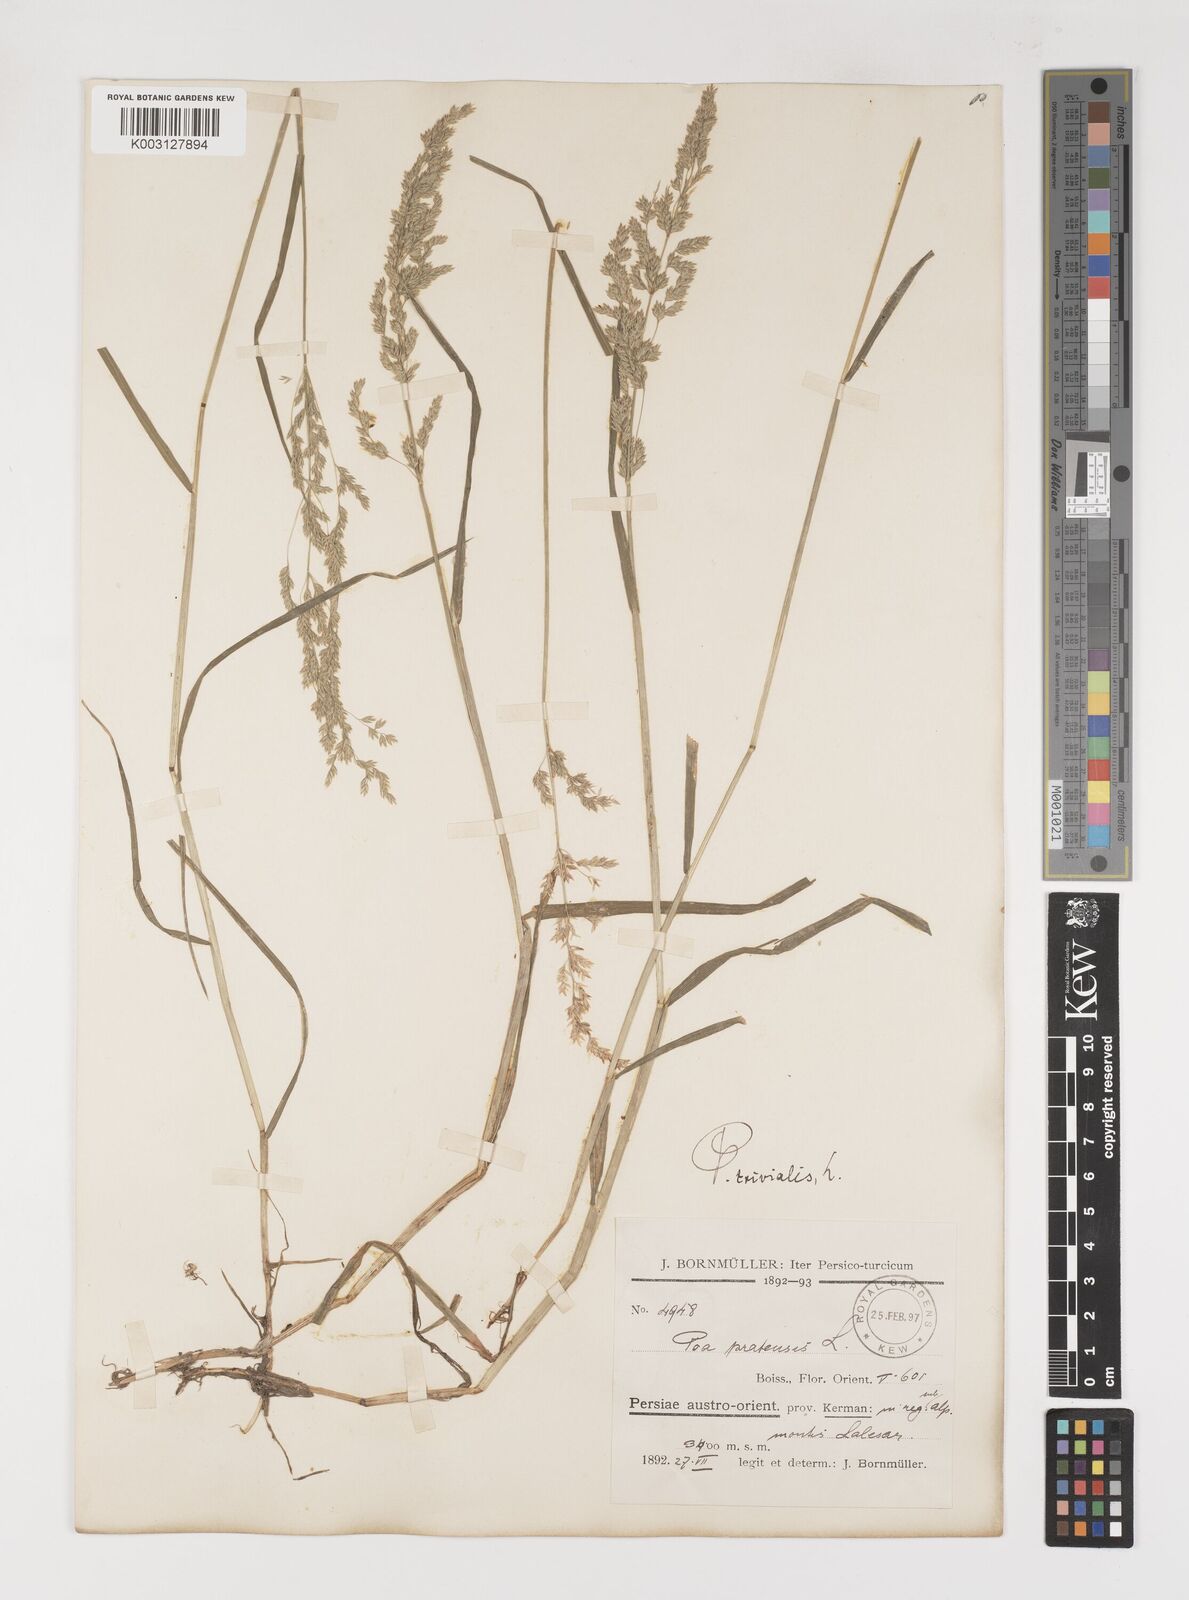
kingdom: Plantae
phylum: Tracheophyta
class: Liliopsida
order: Poales
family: Poaceae
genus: Poa
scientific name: Poa trivialis
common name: Rough bluegrass
